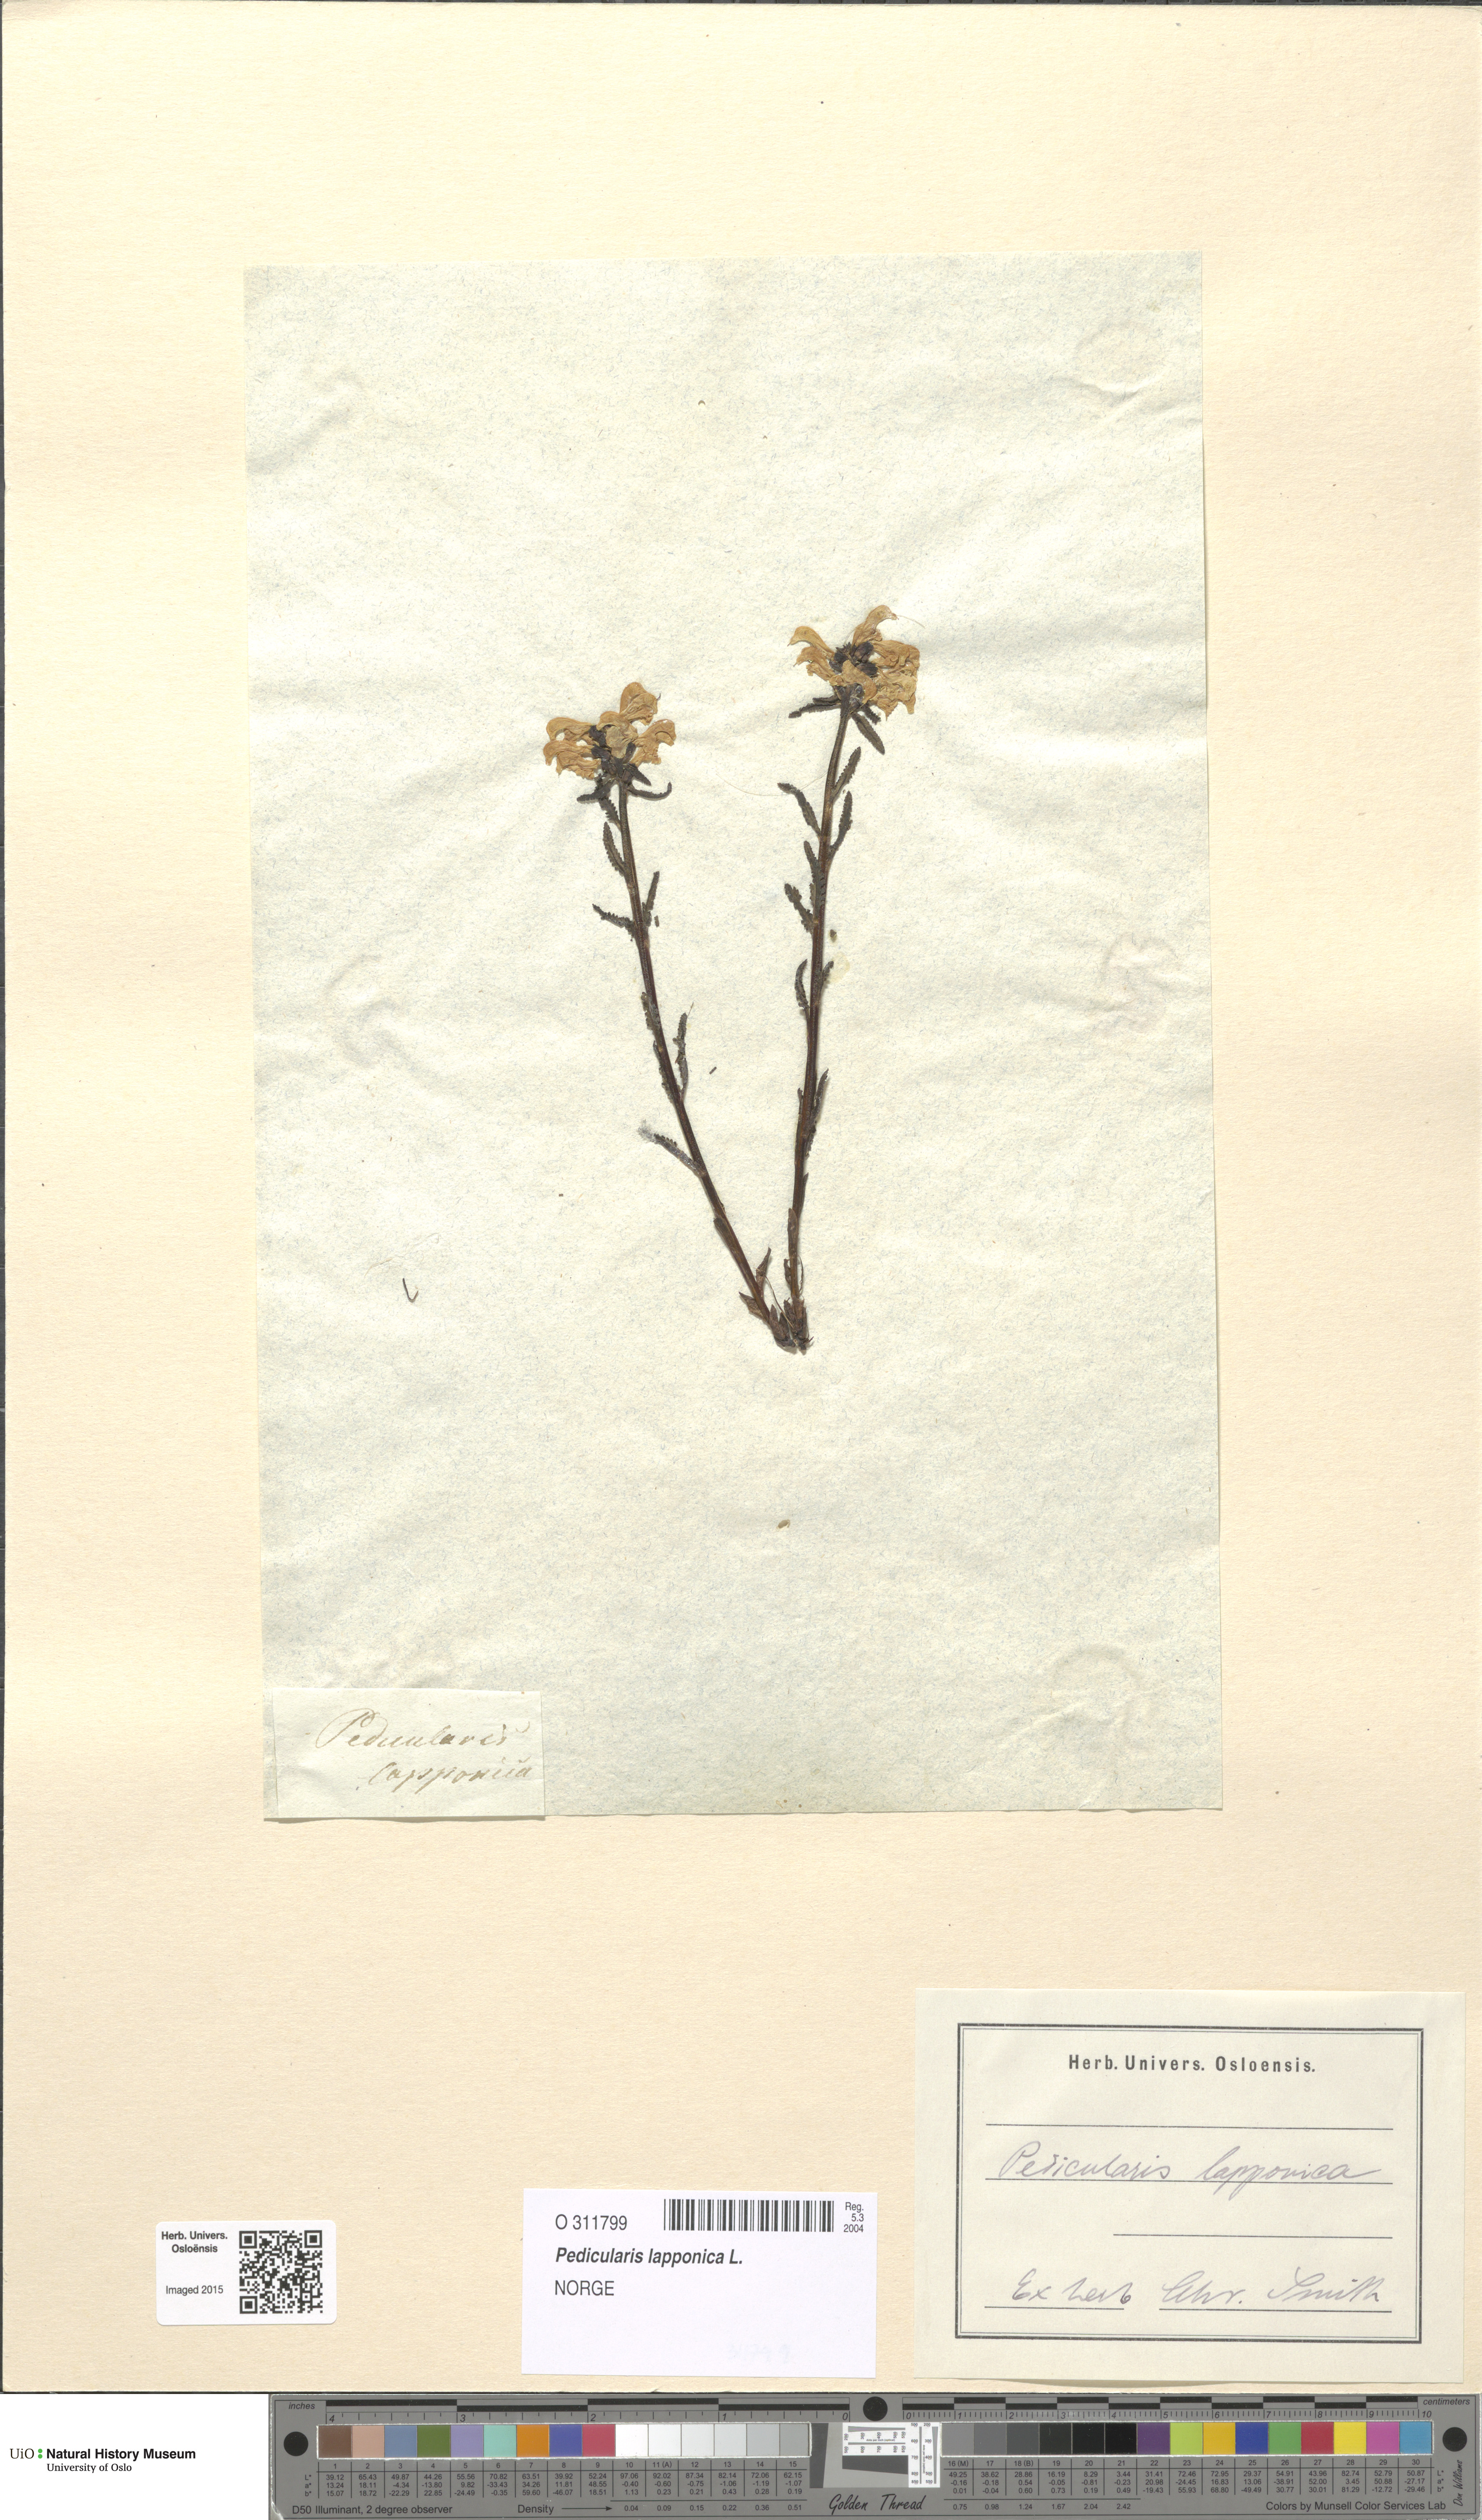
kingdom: Plantae
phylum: Tracheophyta
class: Magnoliopsida
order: Lamiales
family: Orobanchaceae
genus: Pedicularis
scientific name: Pedicularis lapponica
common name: Lapland lousewort
